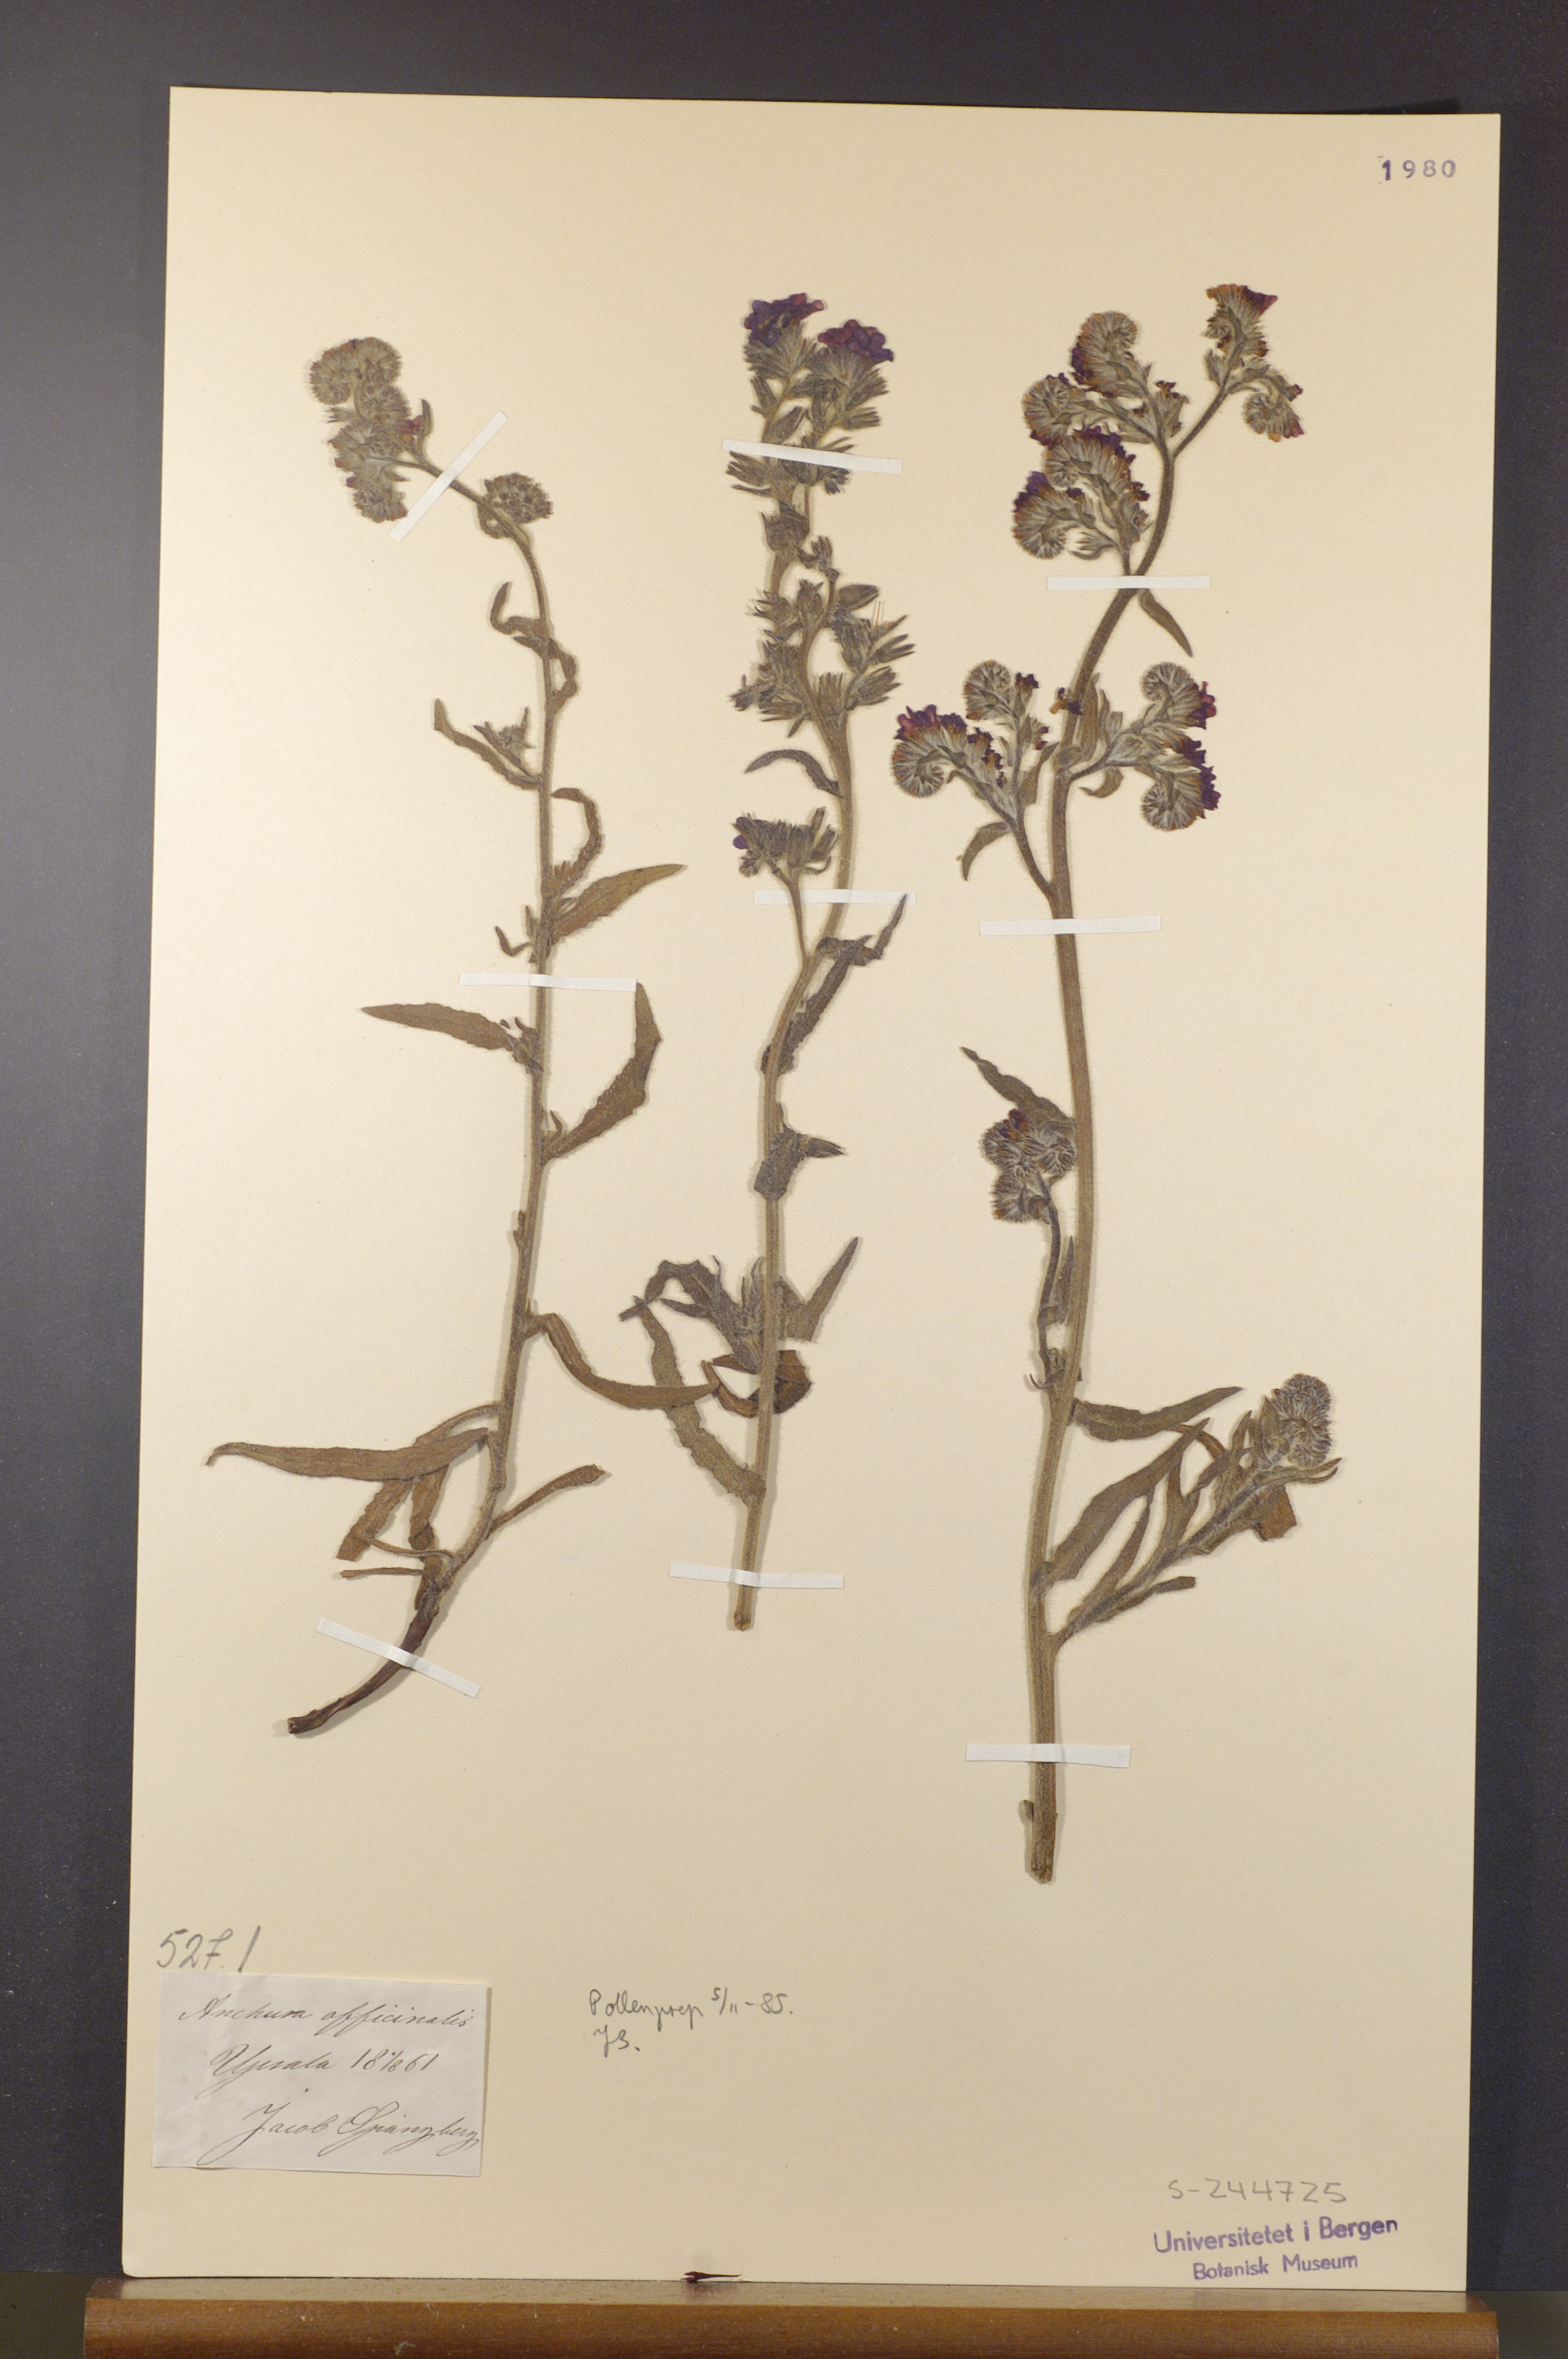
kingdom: Plantae
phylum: Tracheophyta
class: Magnoliopsida
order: Boraginales
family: Boraginaceae
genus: Anchusa
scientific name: Anchusa officinalis
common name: Alkanet
